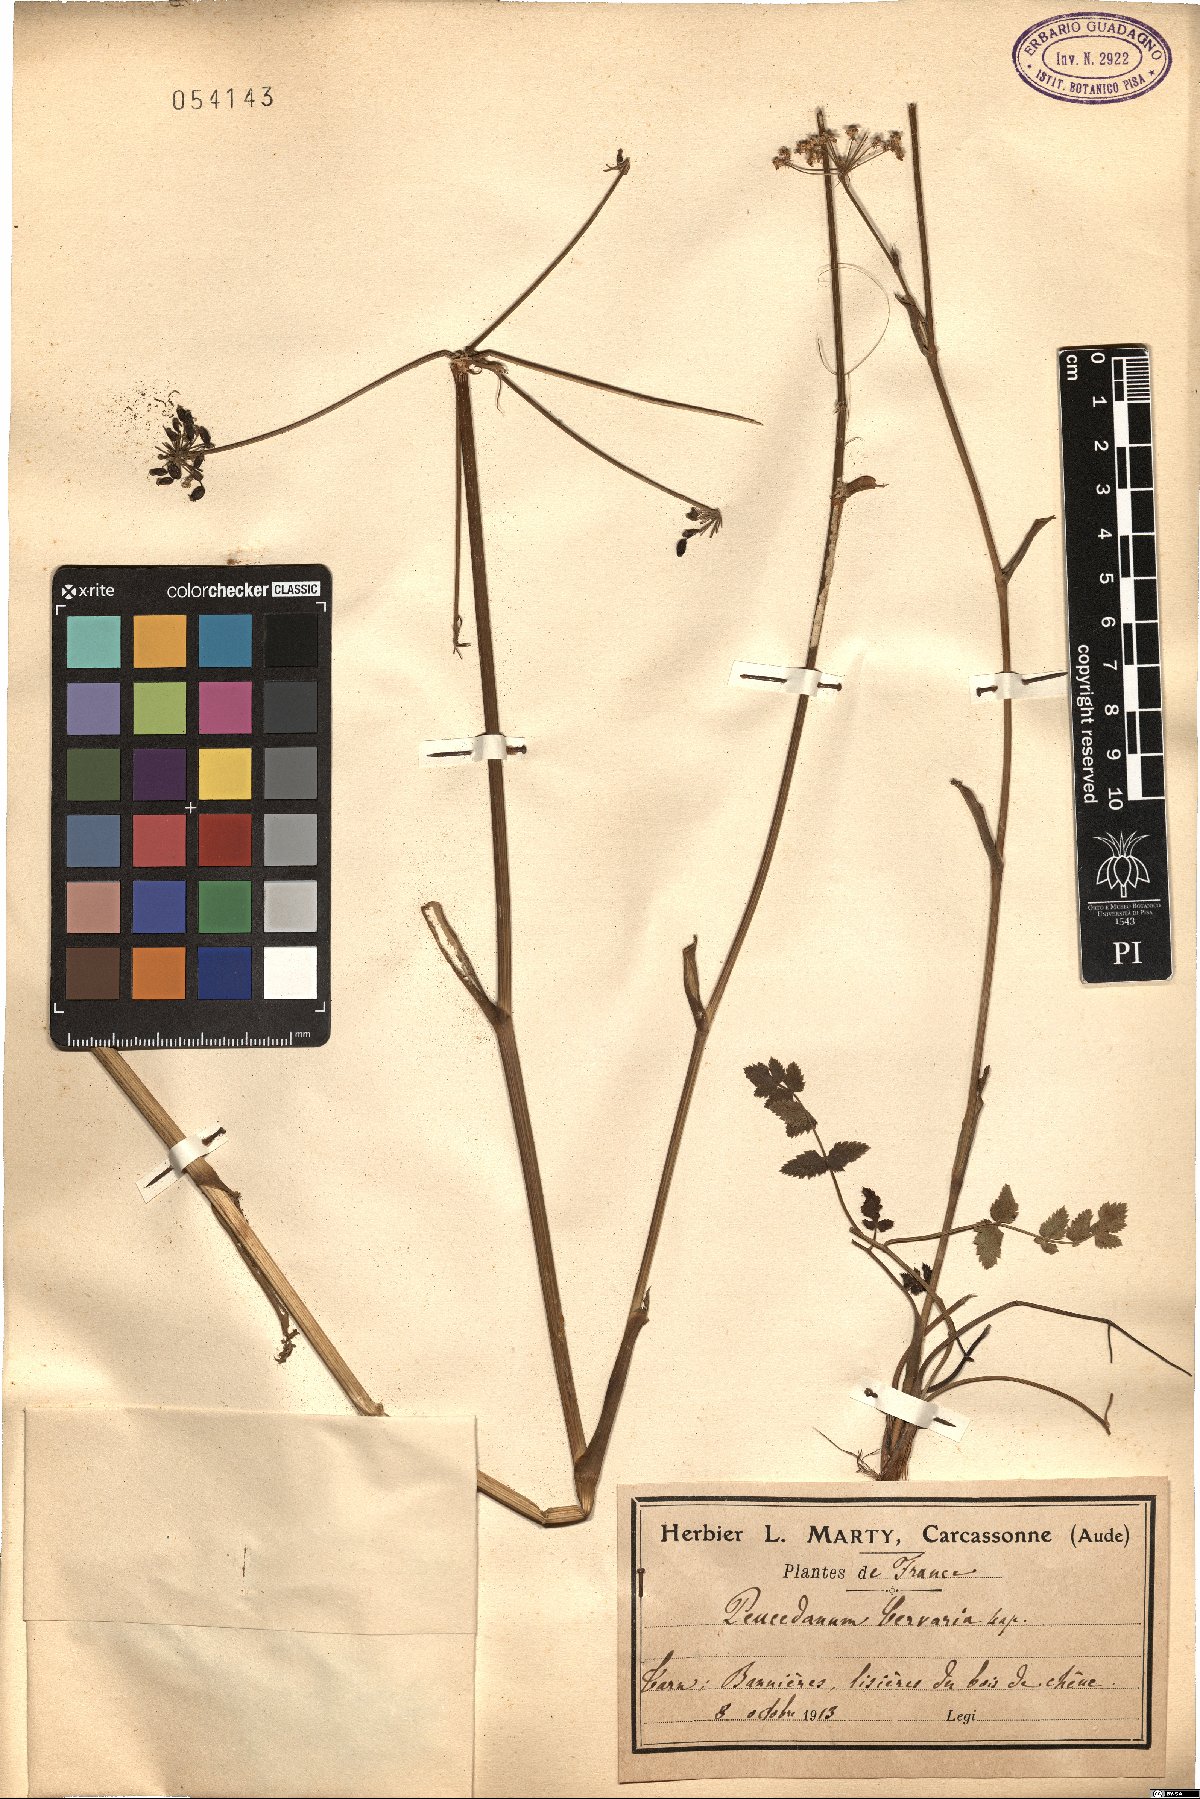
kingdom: Plantae
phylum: Tracheophyta
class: Magnoliopsida
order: Apiales
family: Apiaceae
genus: Cervaria
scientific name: Cervaria rivini
